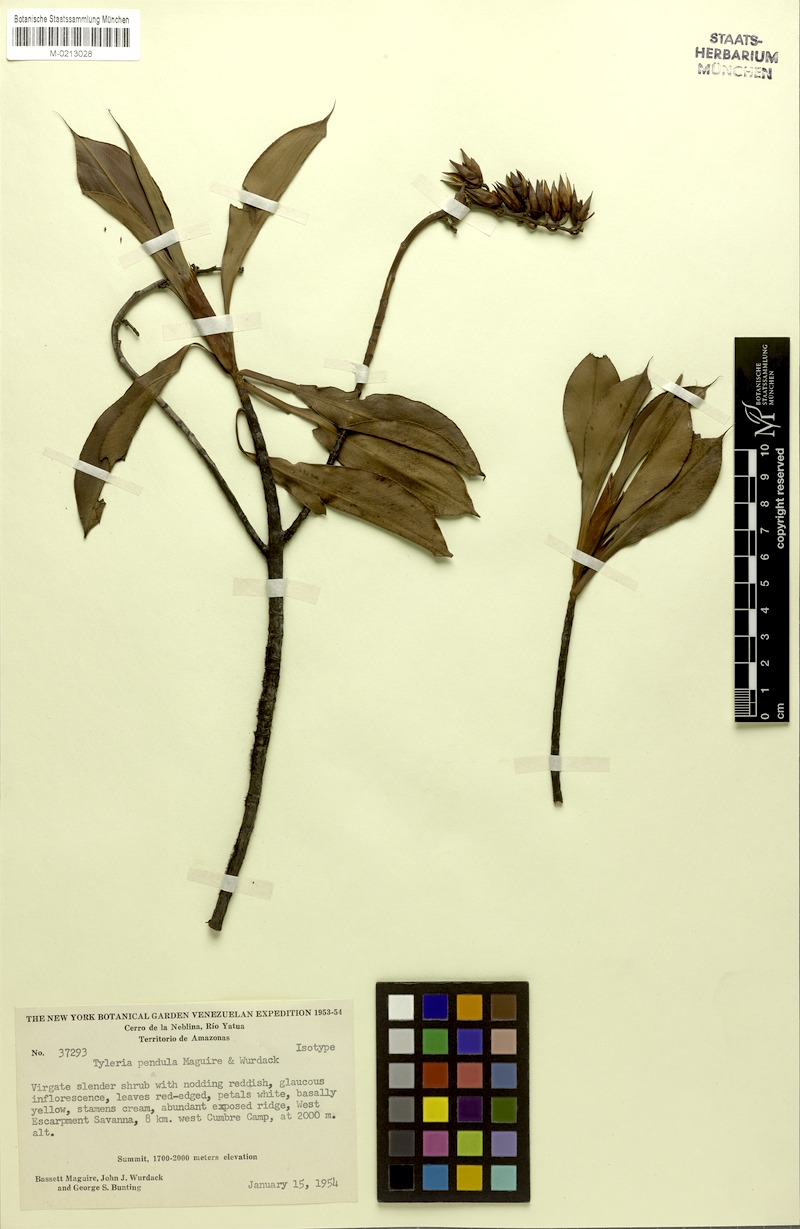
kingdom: Plantae
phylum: Tracheophyta
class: Magnoliopsida
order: Malpighiales
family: Ochnaceae
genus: Tyleria
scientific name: Tyleria pendula
